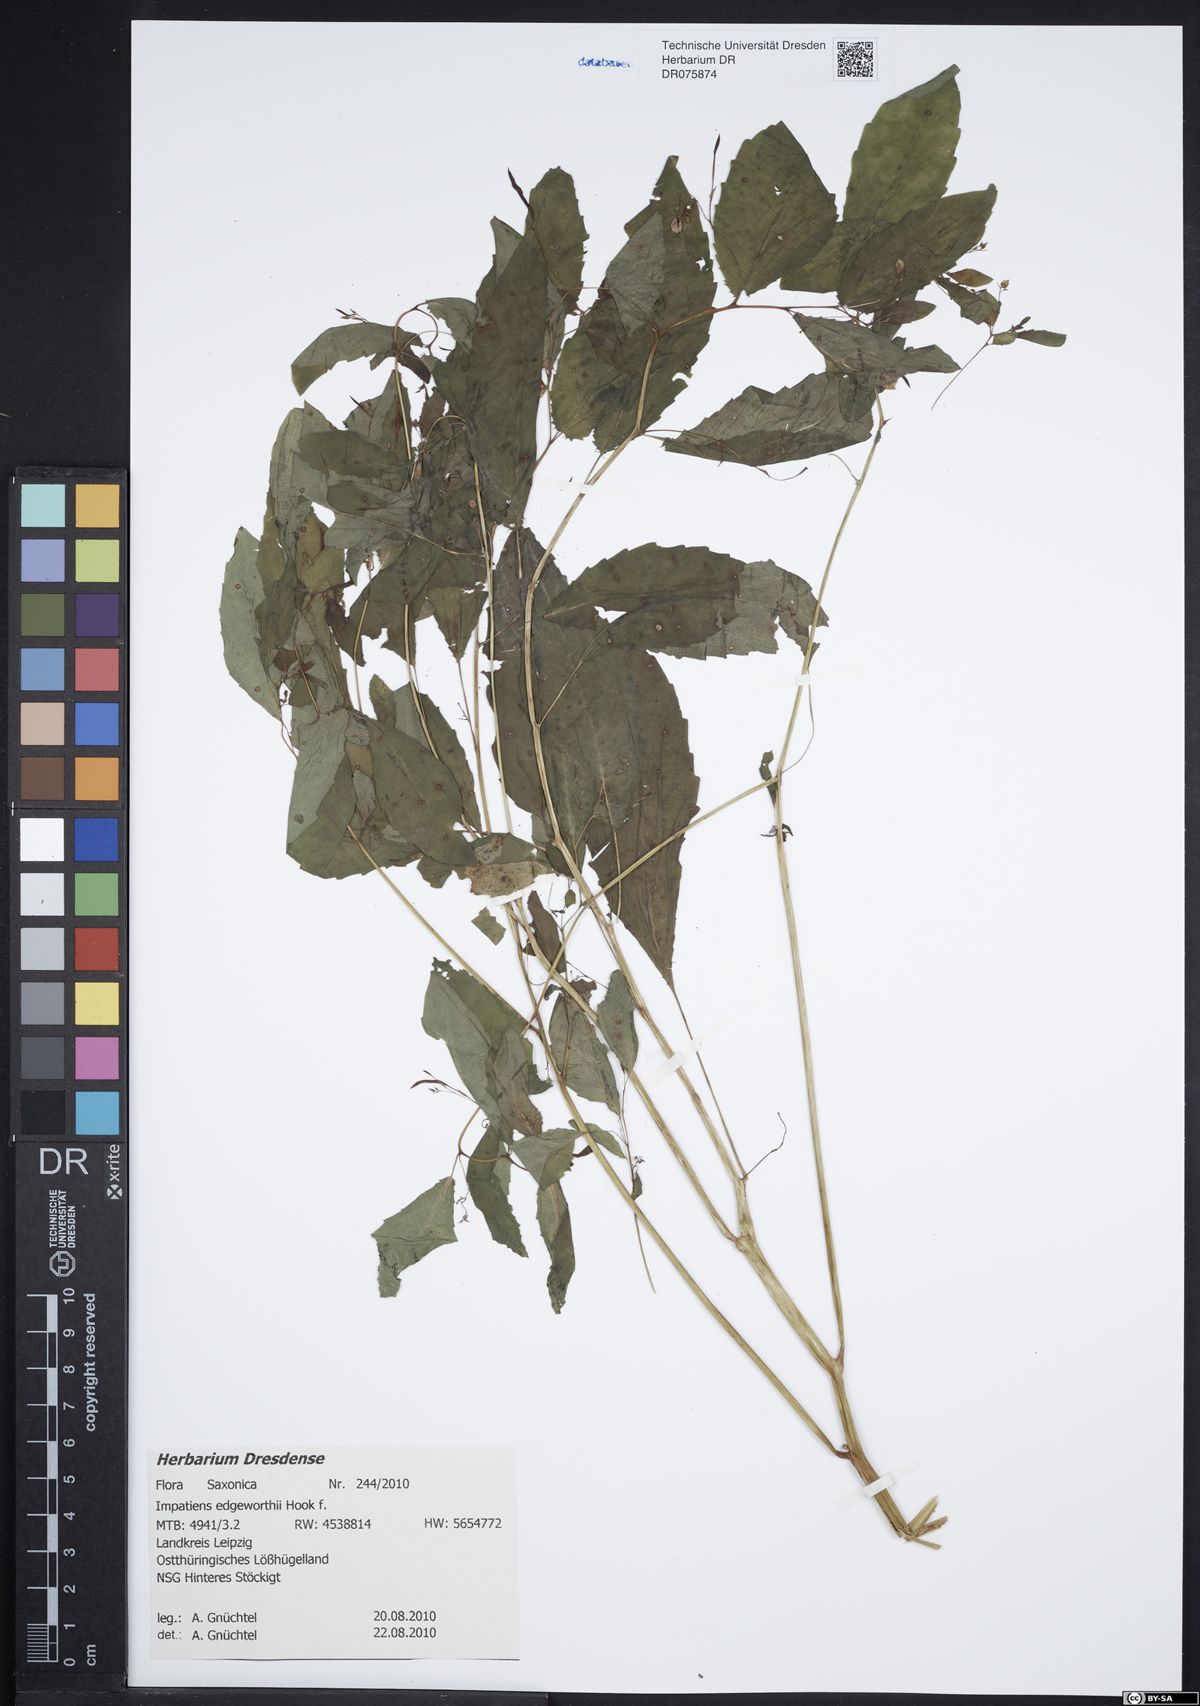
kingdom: Plantae
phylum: Tracheophyta
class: Magnoliopsida
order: Ericales
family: Balsaminaceae
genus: Impatiens
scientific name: Impatiens edgeworthii
